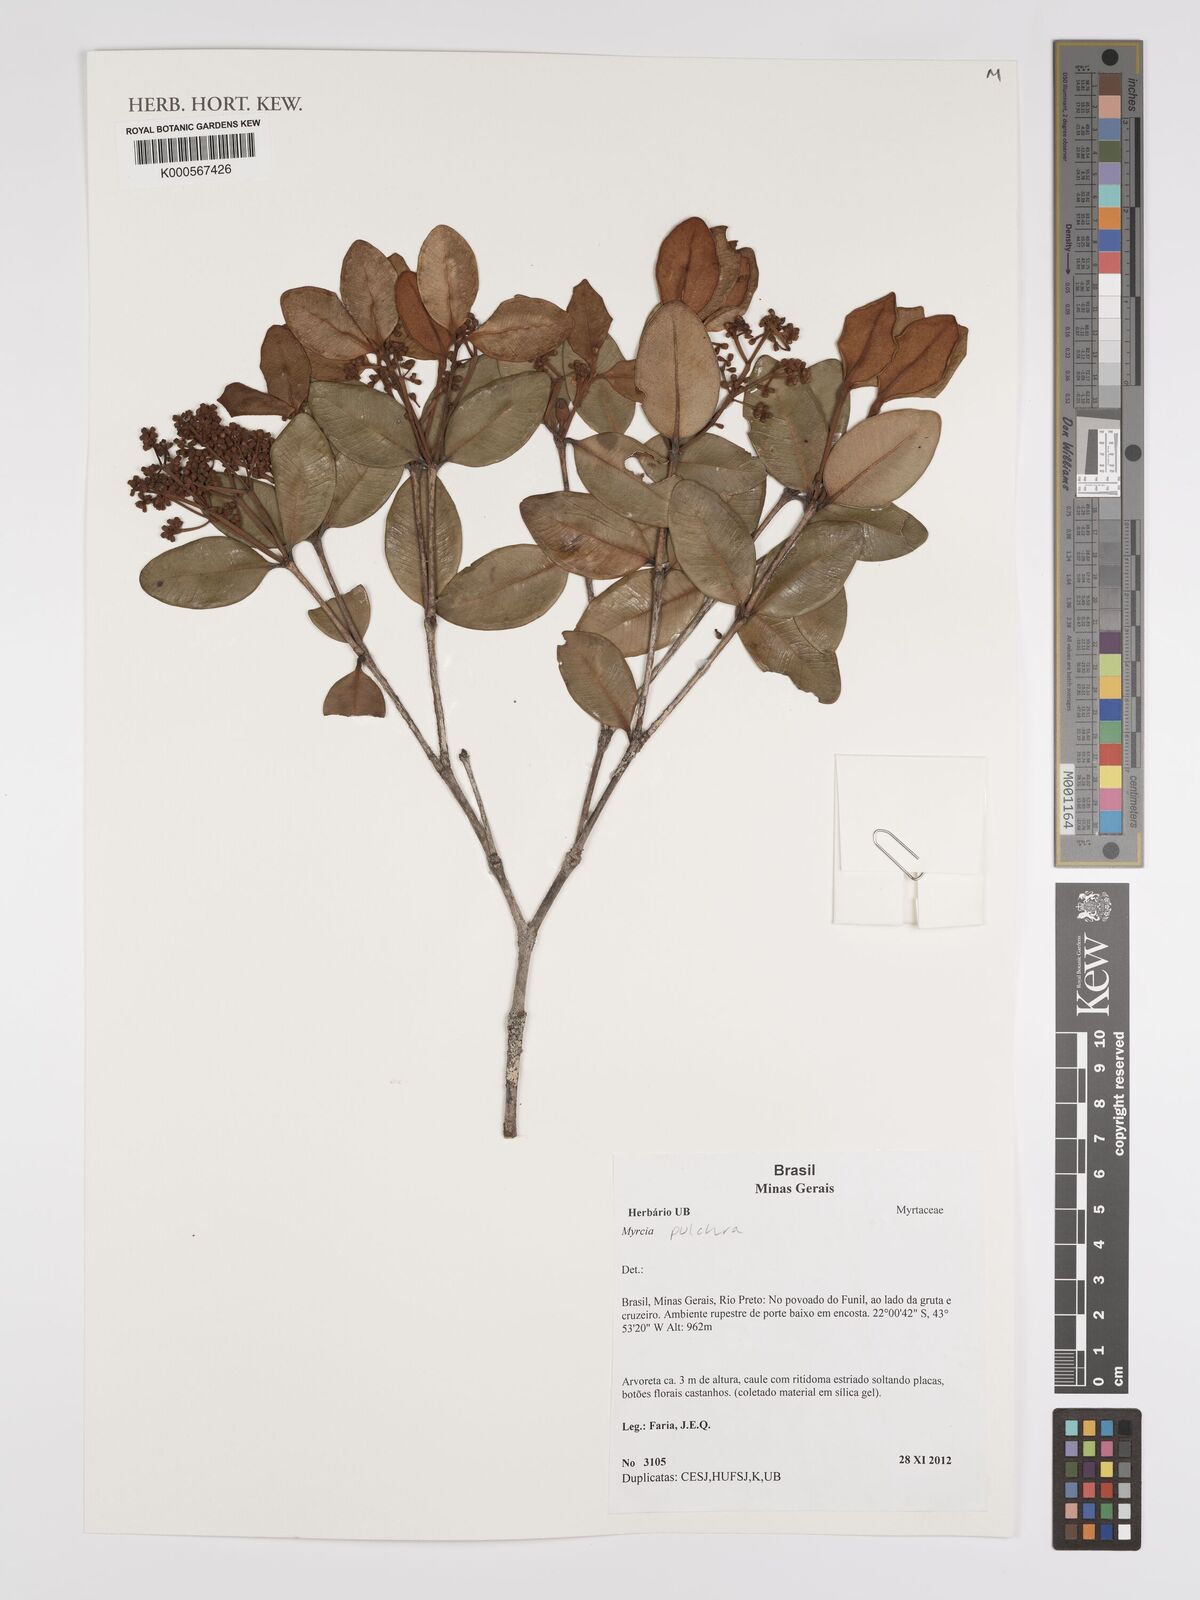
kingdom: Plantae
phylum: Tracheophyta
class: Magnoliopsida
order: Myrtales
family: Myrtaceae
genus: Myrcia
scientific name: Myrcia pulchra
